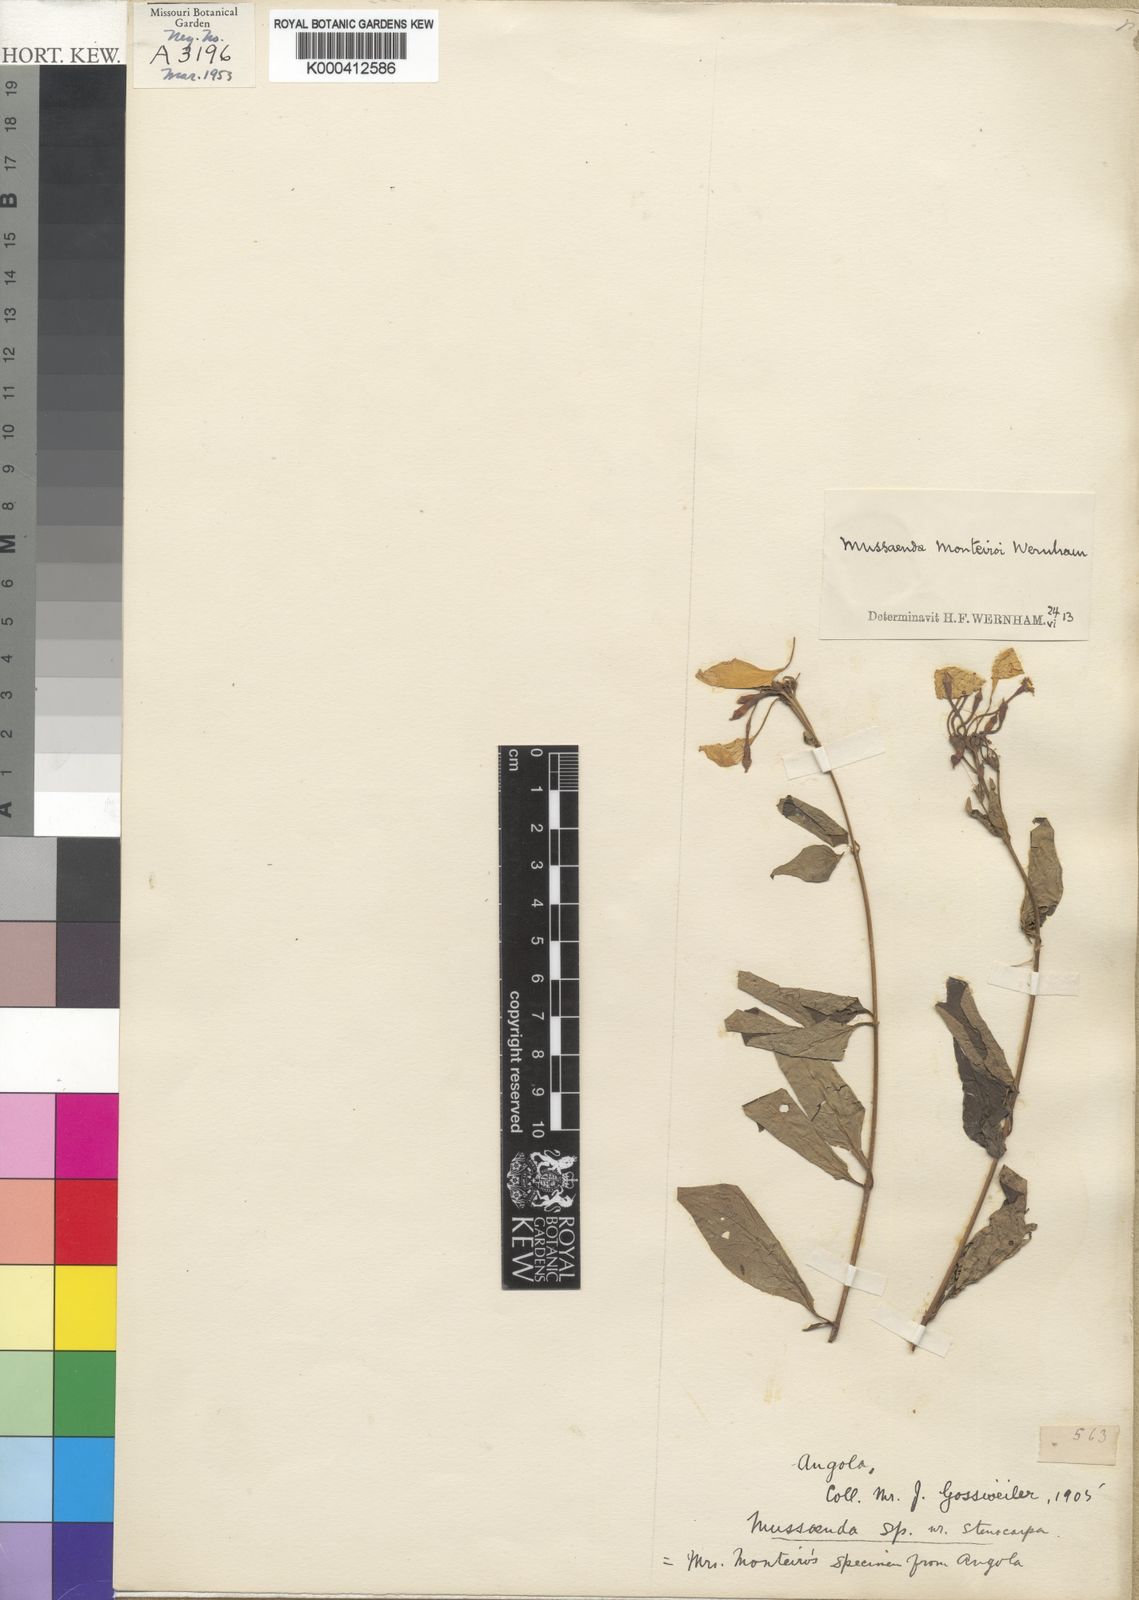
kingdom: Plantae
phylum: Tracheophyta
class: Magnoliopsida
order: Gentianales
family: Rubiaceae
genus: Pseudomussaenda
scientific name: Pseudomussaenda monteiroi
